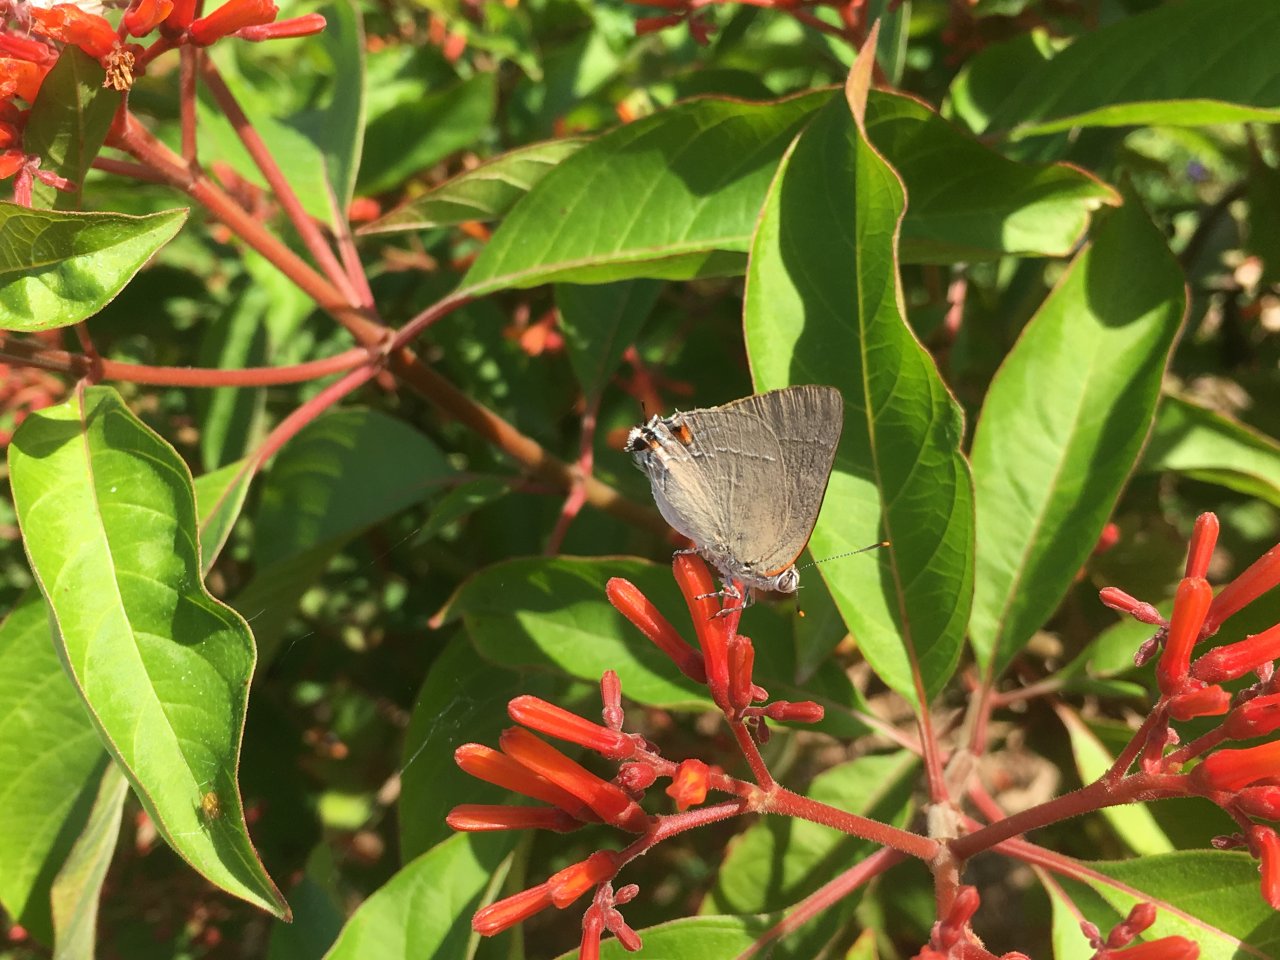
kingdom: Animalia
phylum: Arthropoda
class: Insecta
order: Lepidoptera
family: Lycaenidae
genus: Thecla
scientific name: Thecla marius
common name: Marius Hairstreak
